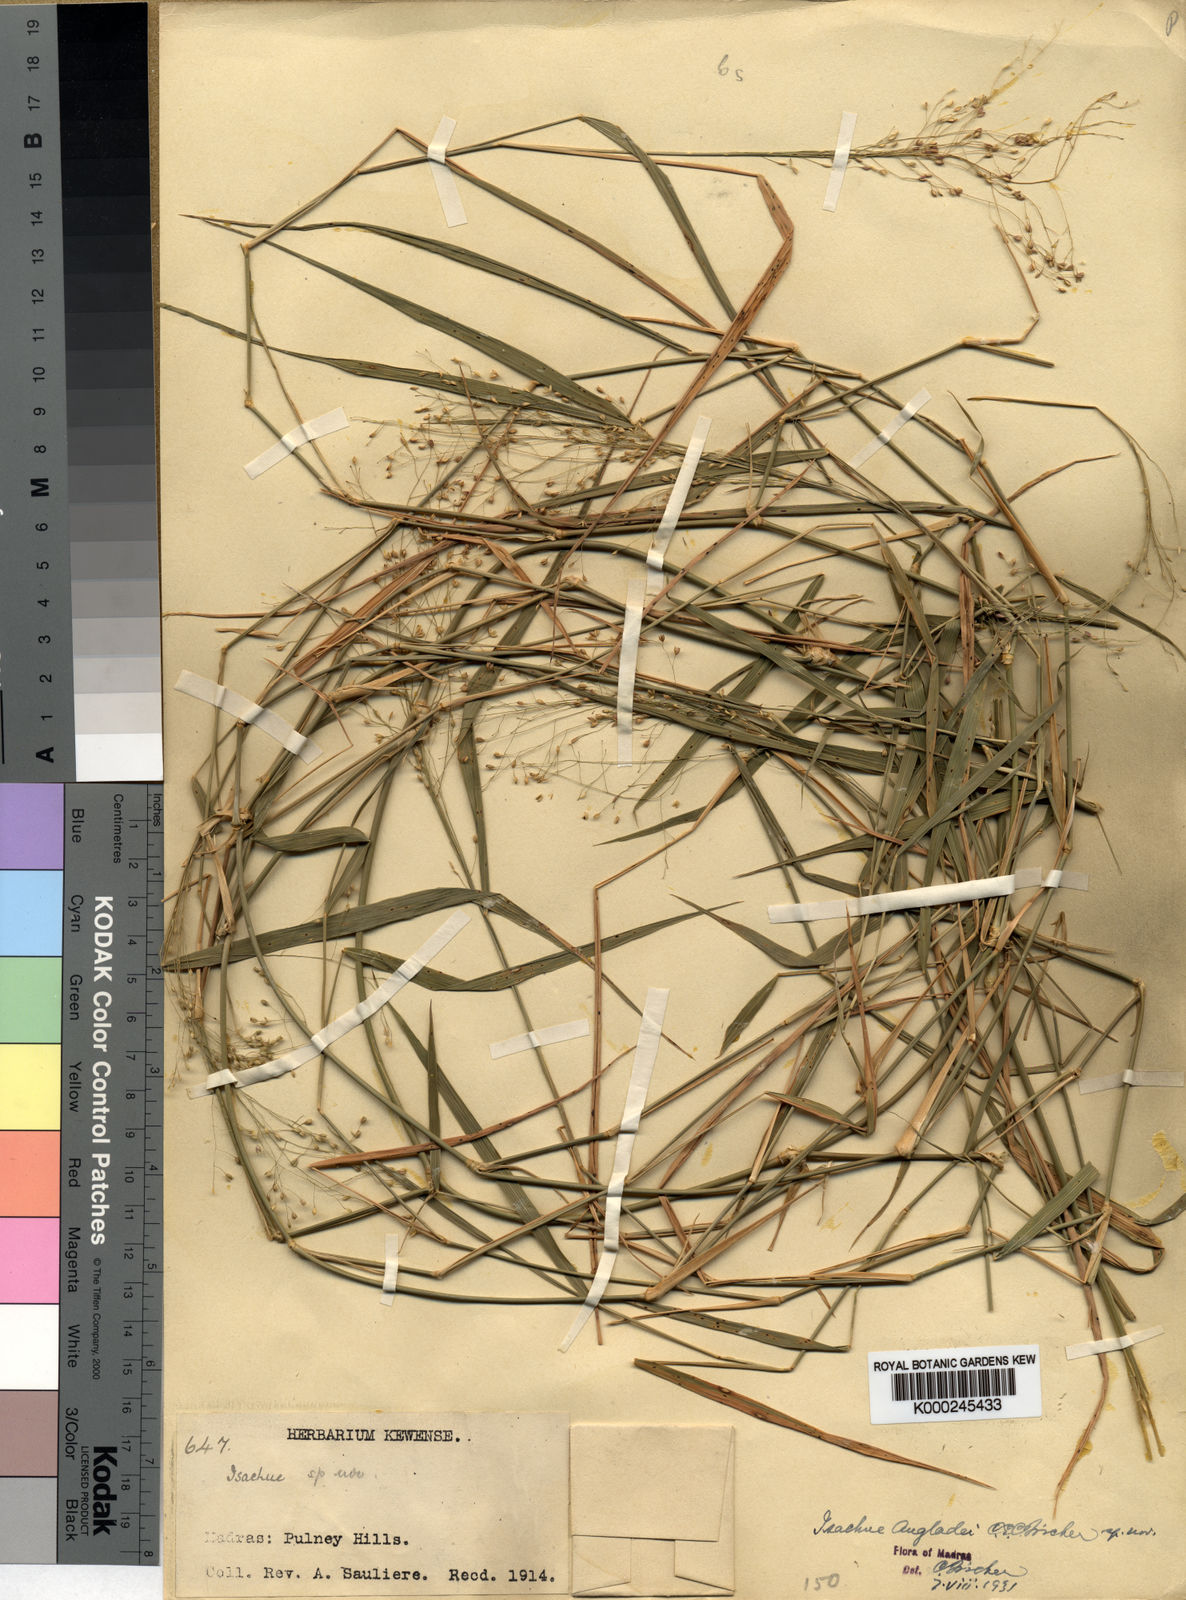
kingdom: Plantae
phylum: Tracheophyta
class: Liliopsida
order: Poales
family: Poaceae
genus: Isachne
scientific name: Isachne angladei
